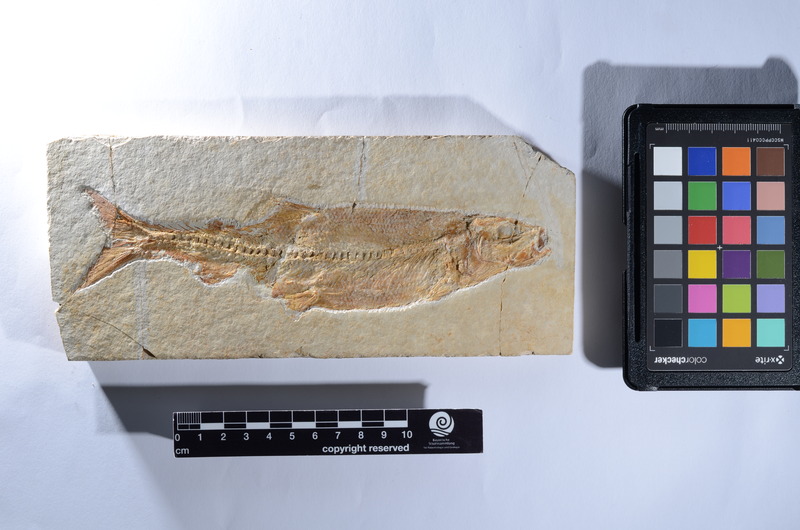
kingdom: Animalia
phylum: Chordata
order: Elopiformes
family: Anaethalionidae
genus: Anaethalion
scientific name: Anaethalion knorri
